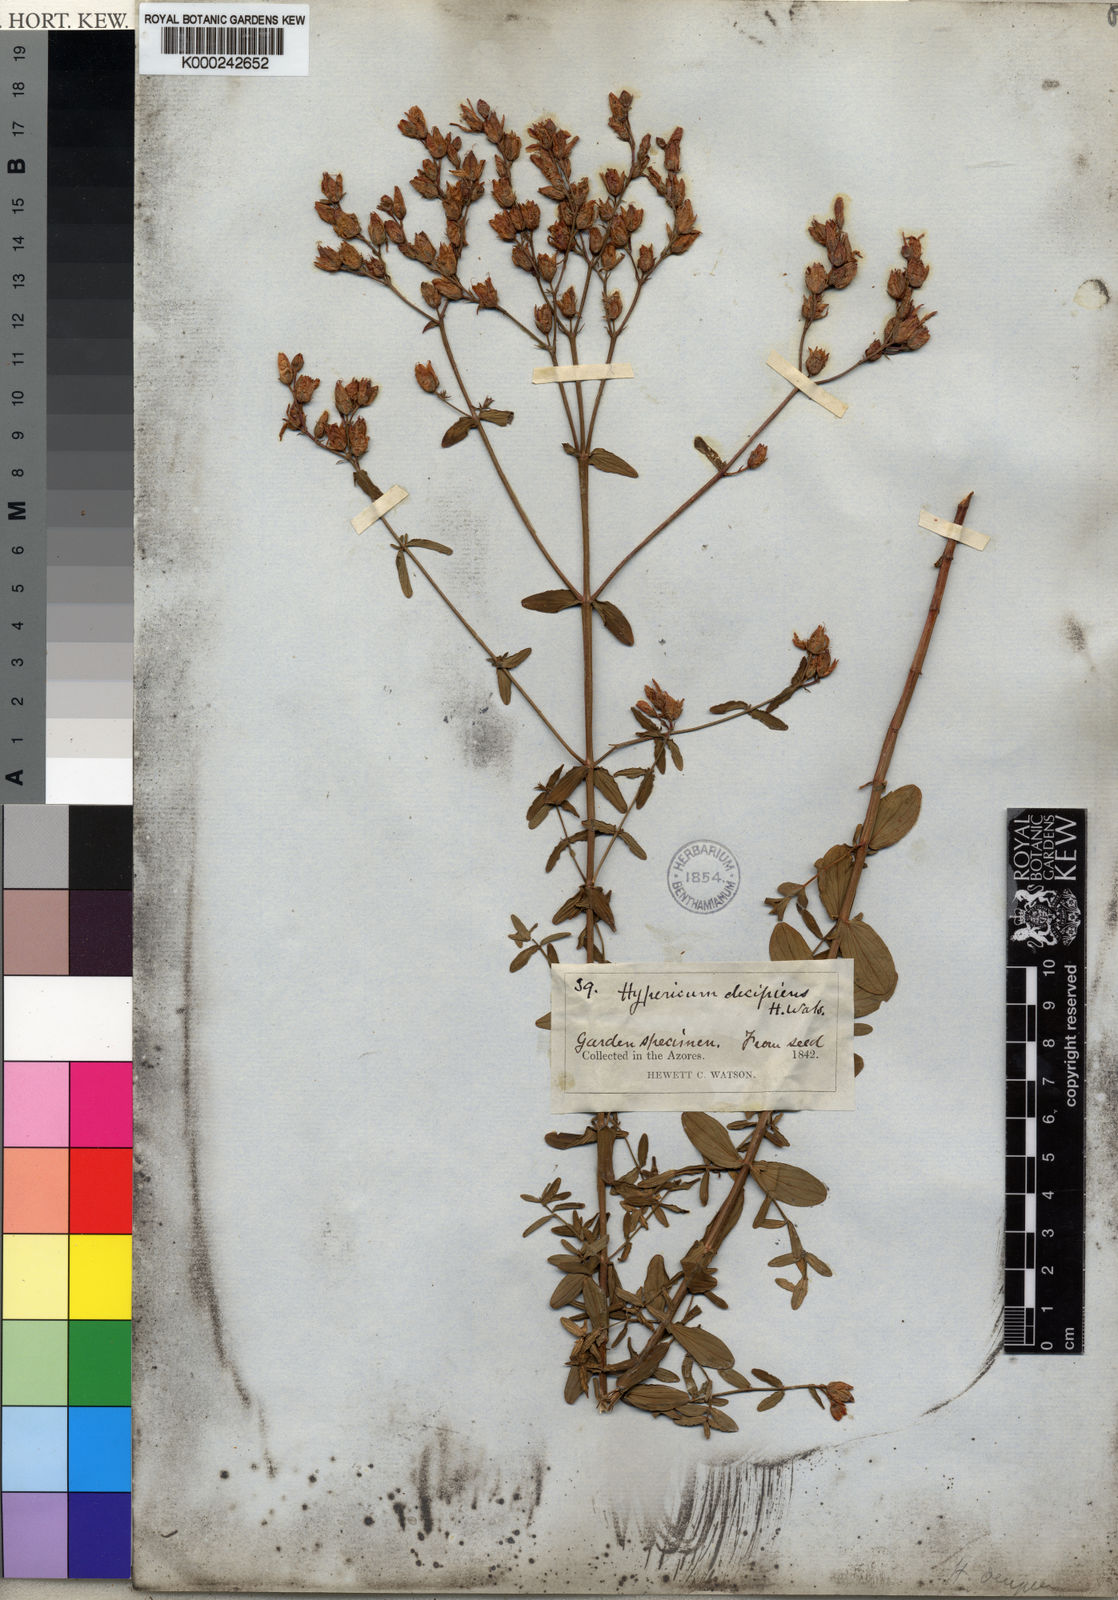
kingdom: Plantae
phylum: Tracheophyta
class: Magnoliopsida
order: Malpighiales
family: Hypericaceae
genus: Hypericum
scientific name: Hypericum undulatum
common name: Wavy st. john's-wort
